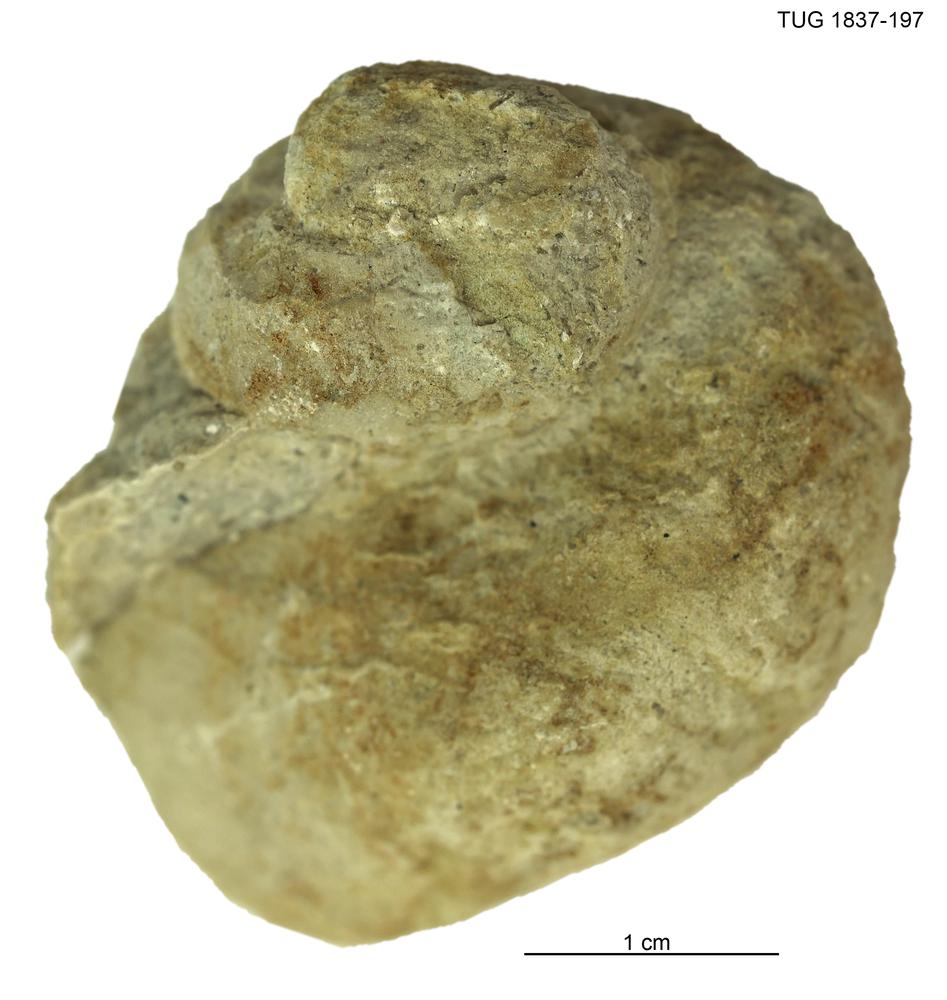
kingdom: Animalia
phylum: Mollusca
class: Gastropoda
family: Holopeidae
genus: Holopea
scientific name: Holopea
